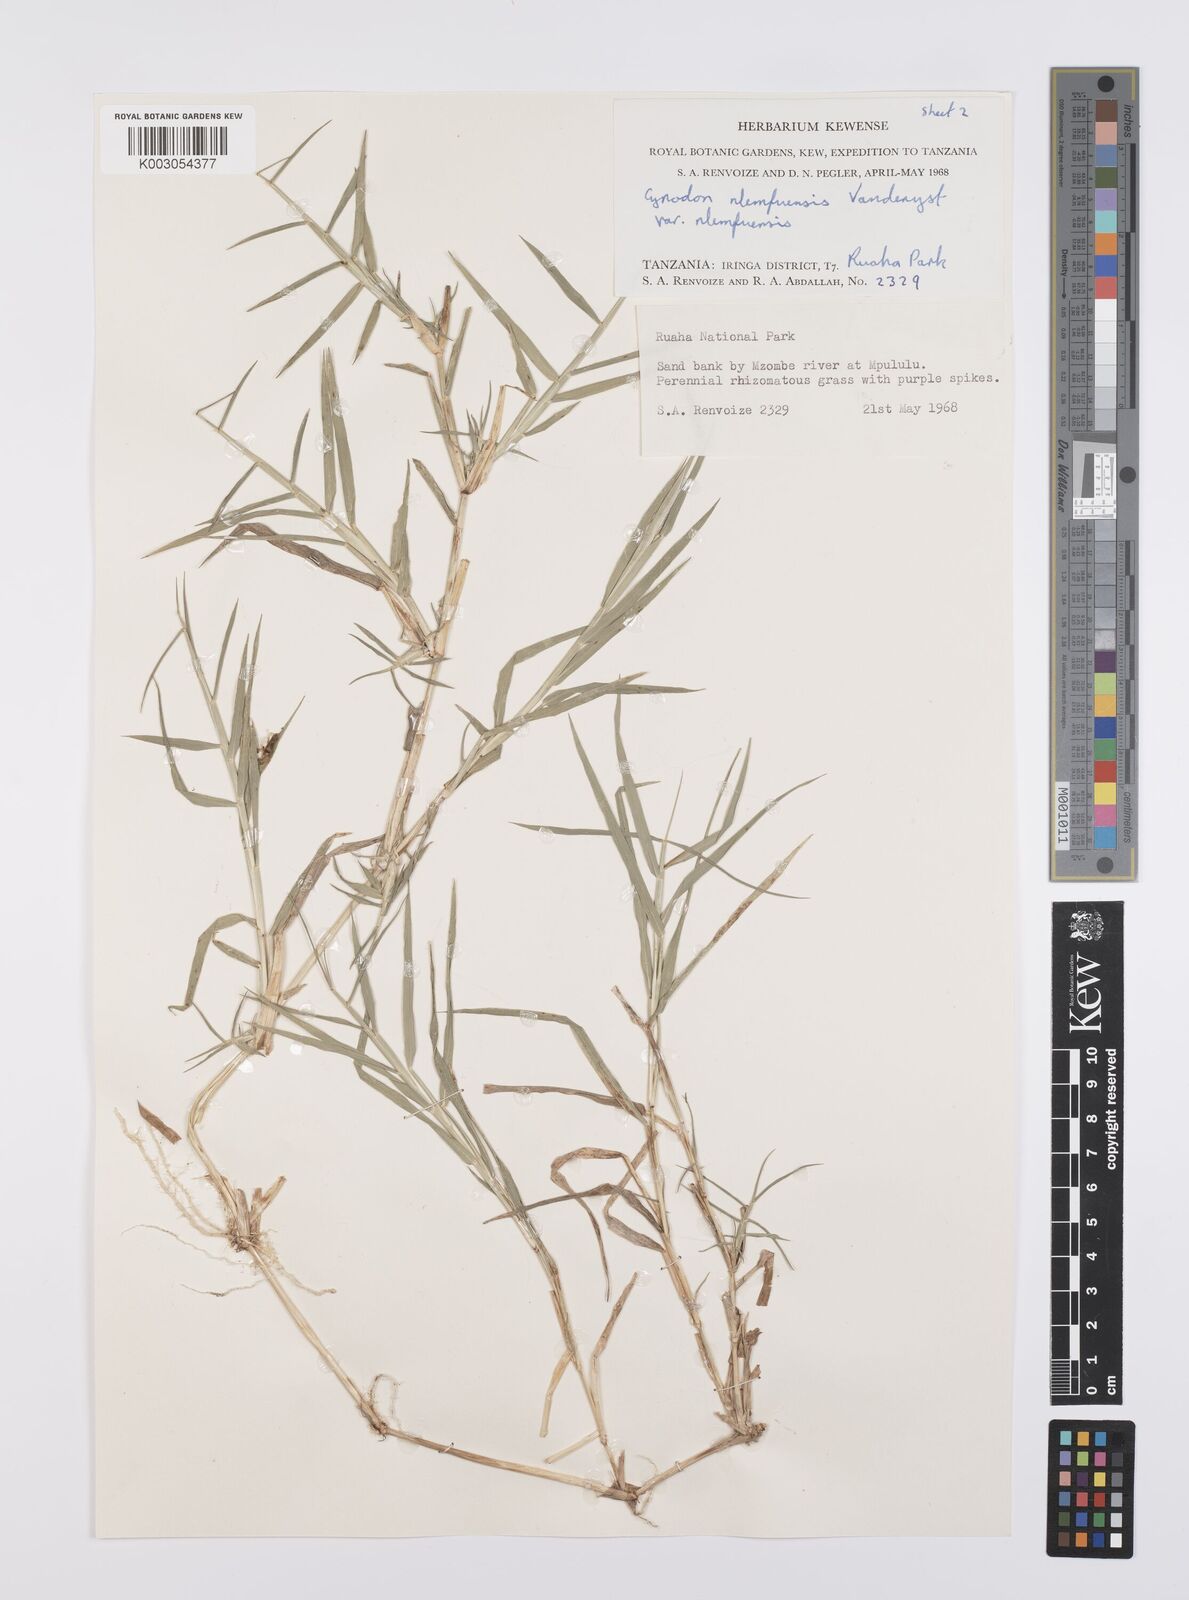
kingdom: Plantae
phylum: Tracheophyta
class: Liliopsida
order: Poales
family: Poaceae
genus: Cynodon
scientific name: Cynodon nlemfuensis
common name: African bermudagrass
